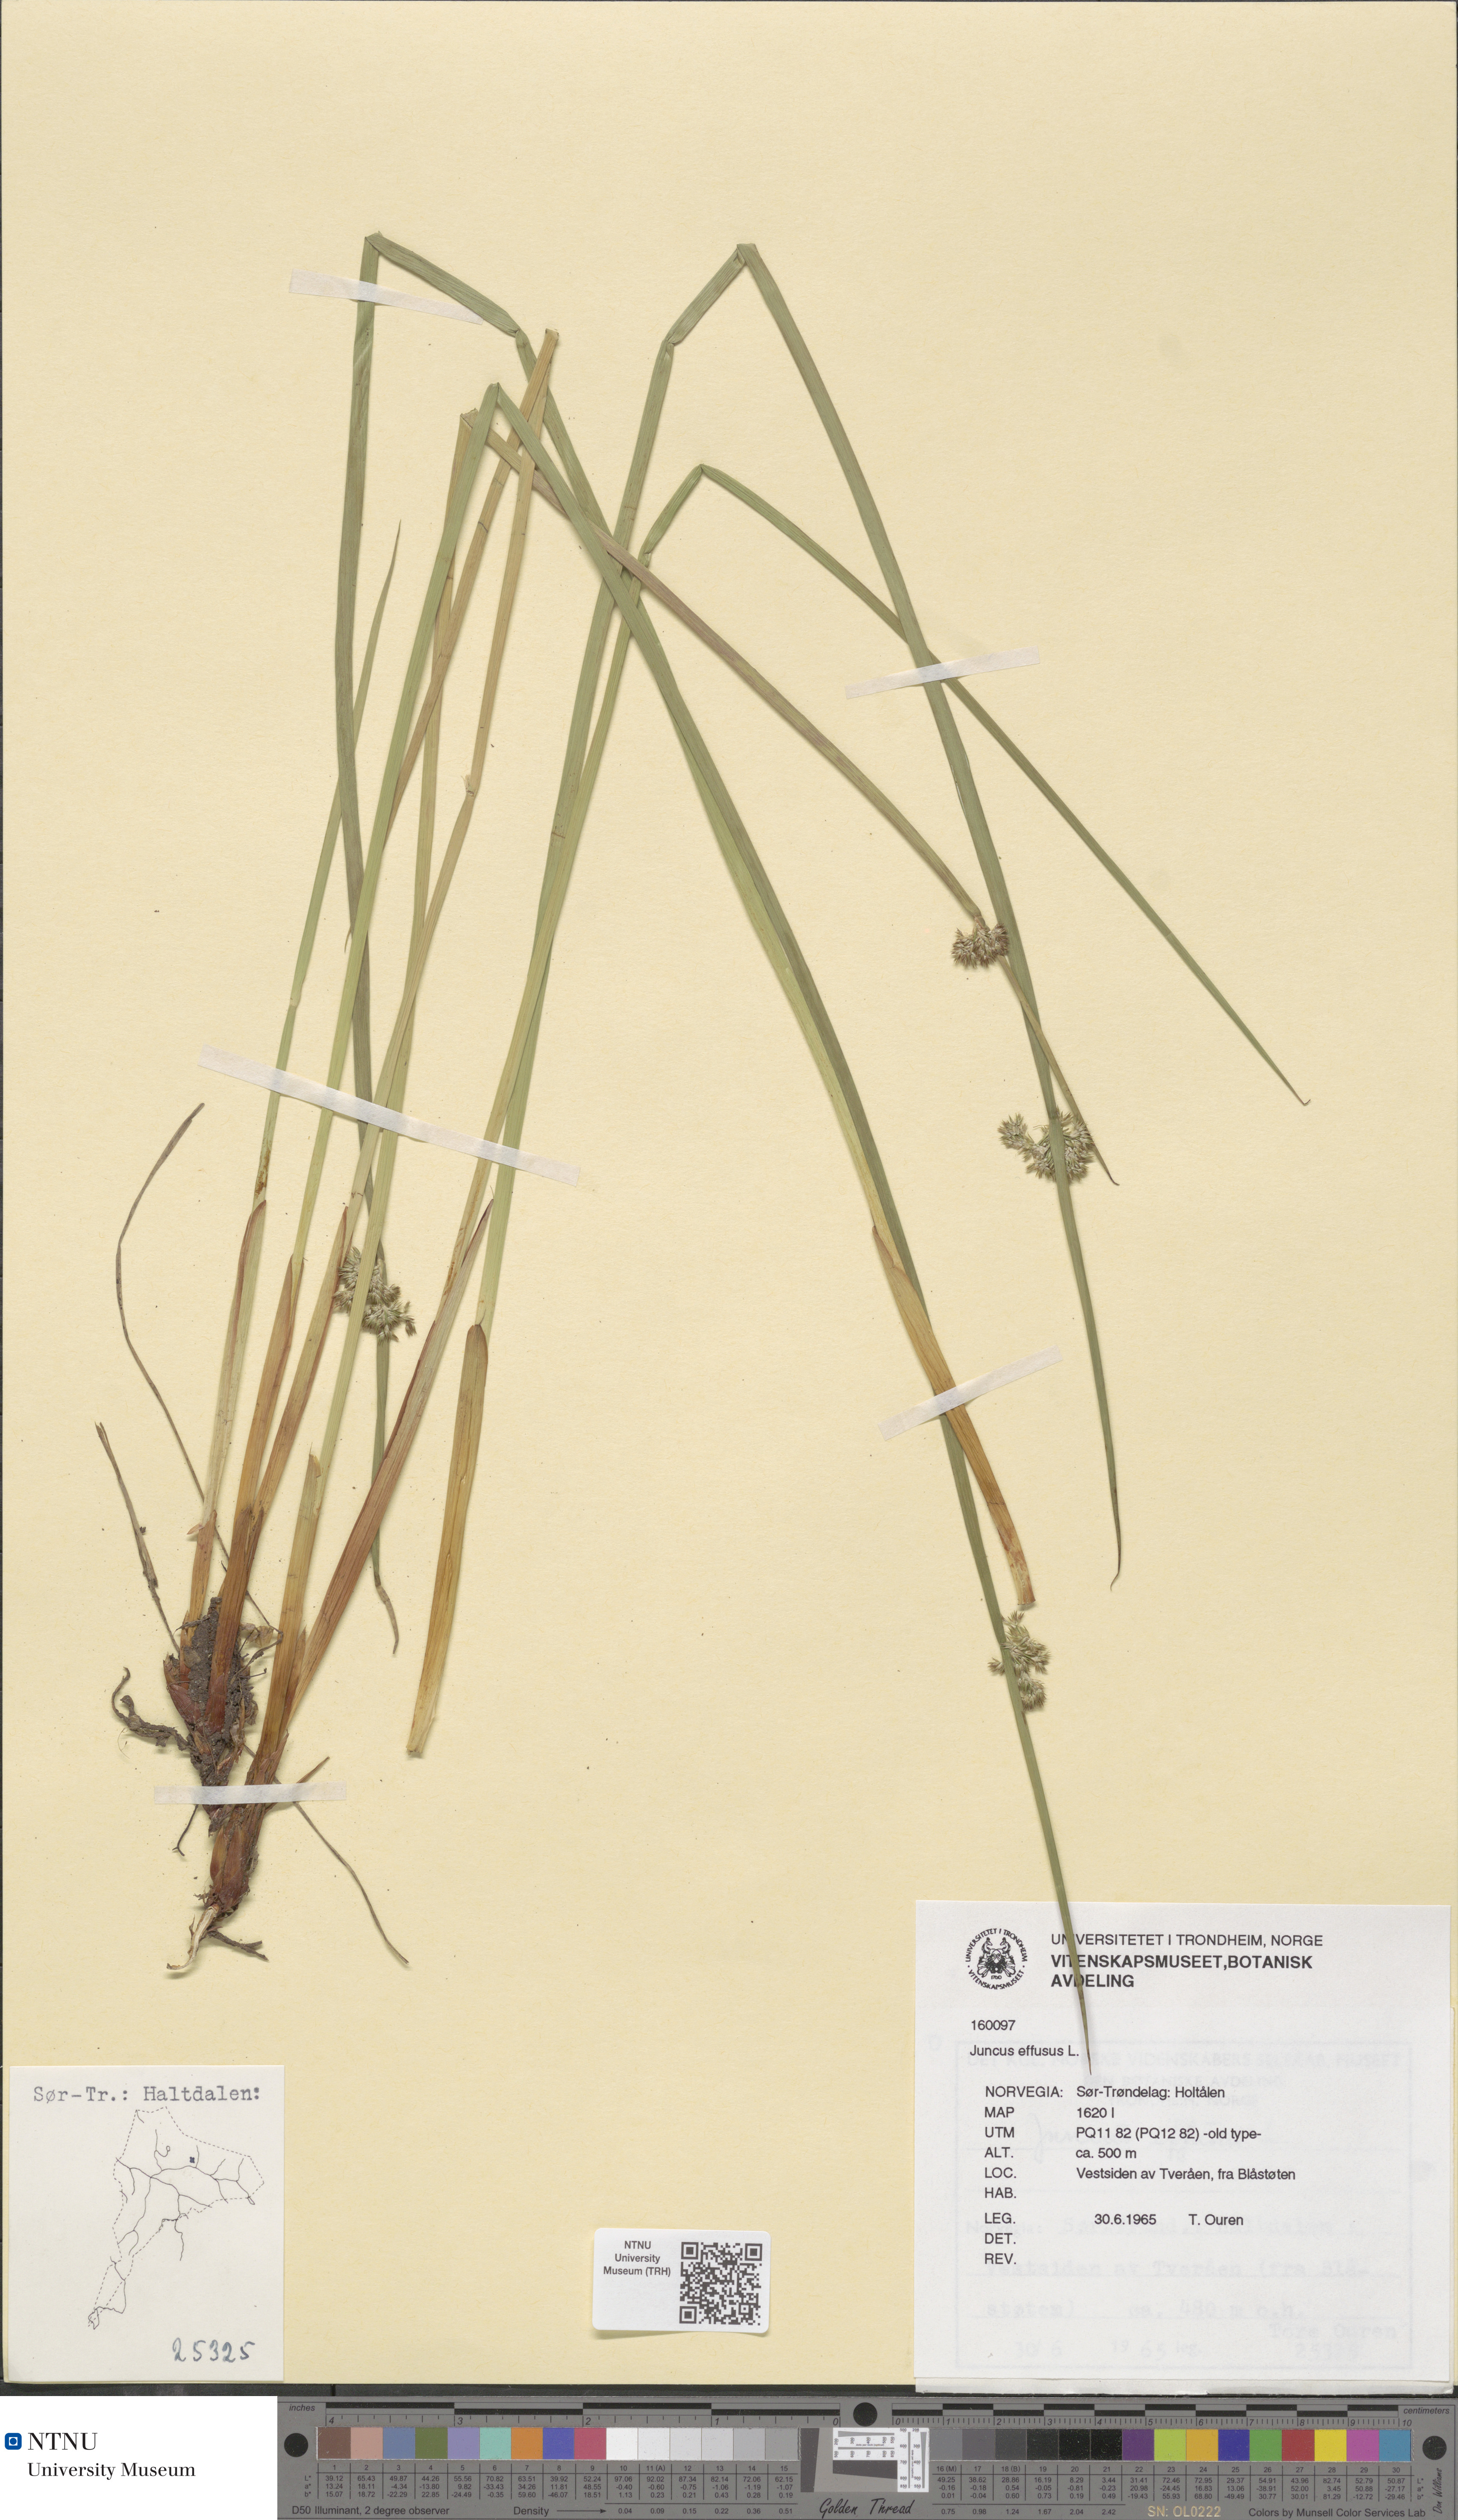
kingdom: Plantae
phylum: Tracheophyta
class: Liliopsida
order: Poales
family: Juncaceae
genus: Juncus
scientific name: Juncus effusus
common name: Soft rush
